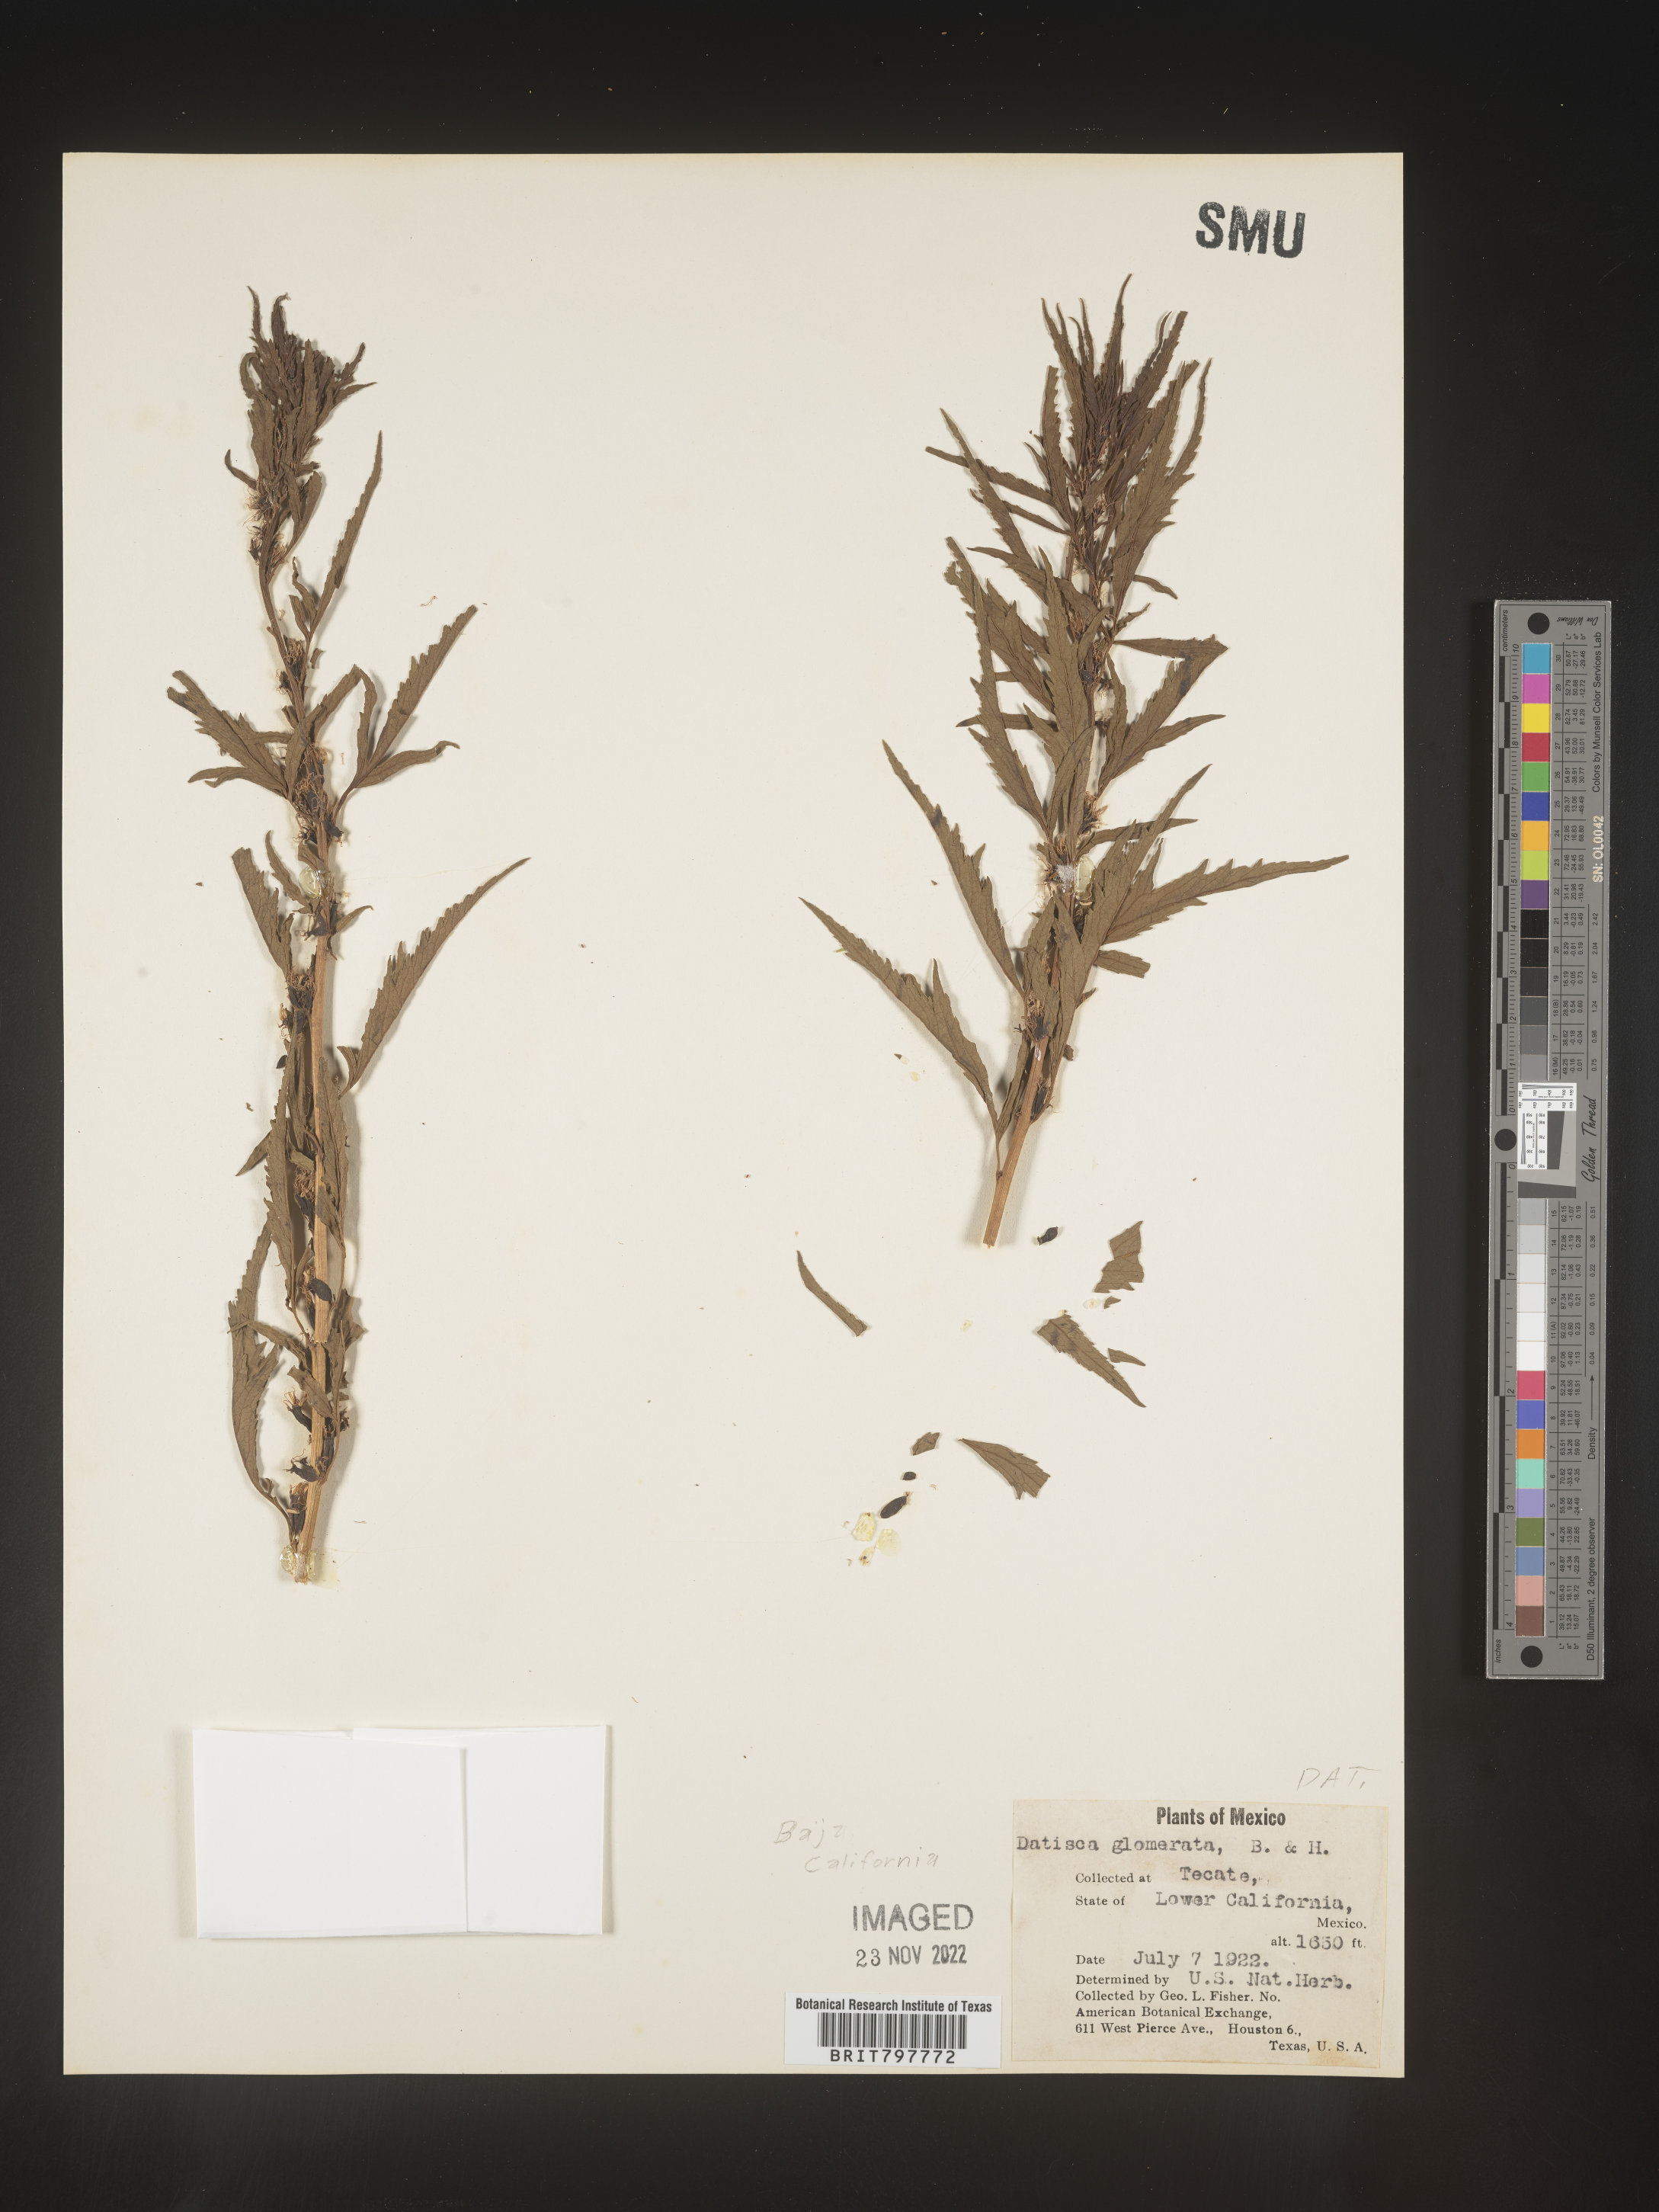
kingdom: Plantae
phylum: Tracheophyta
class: Magnoliopsida
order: Cucurbitales
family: Datiscaceae
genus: Datisca
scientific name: Datisca
